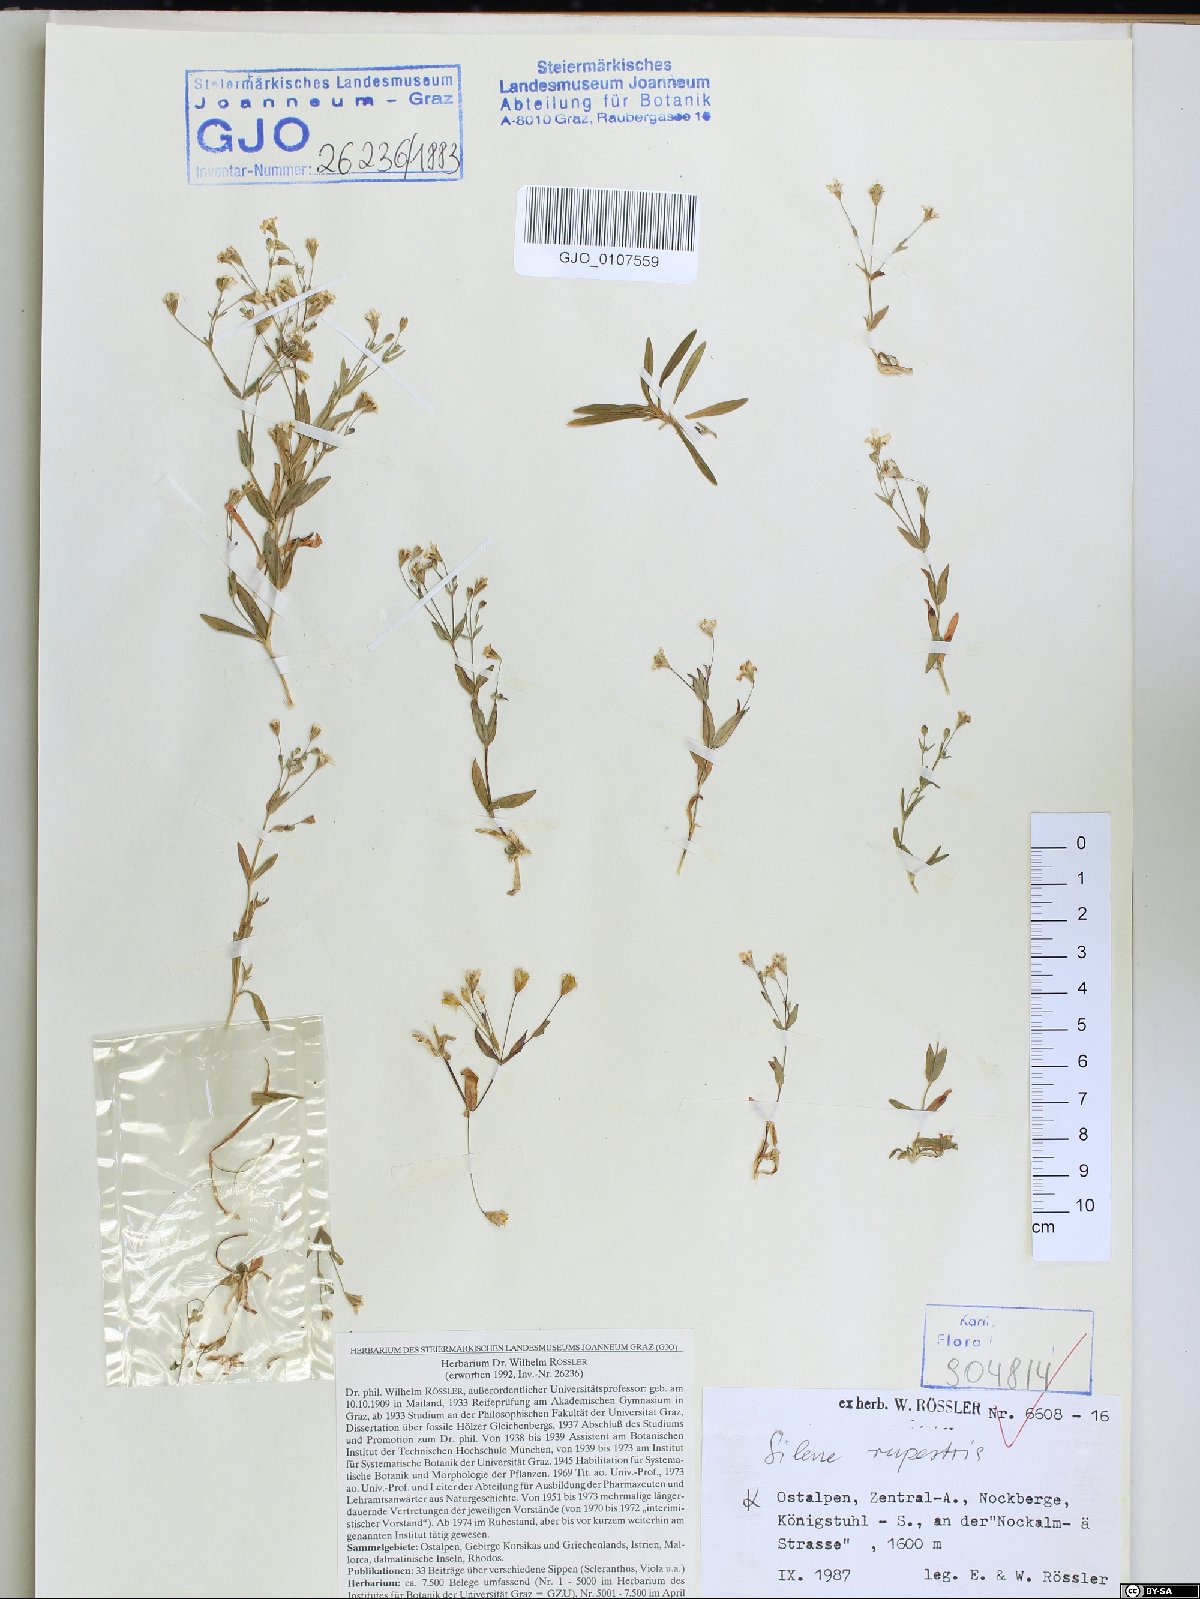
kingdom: Plantae
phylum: Tracheophyta
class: Magnoliopsida
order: Caryophyllales
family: Caryophyllaceae
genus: Atocion
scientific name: Atocion rupestre
